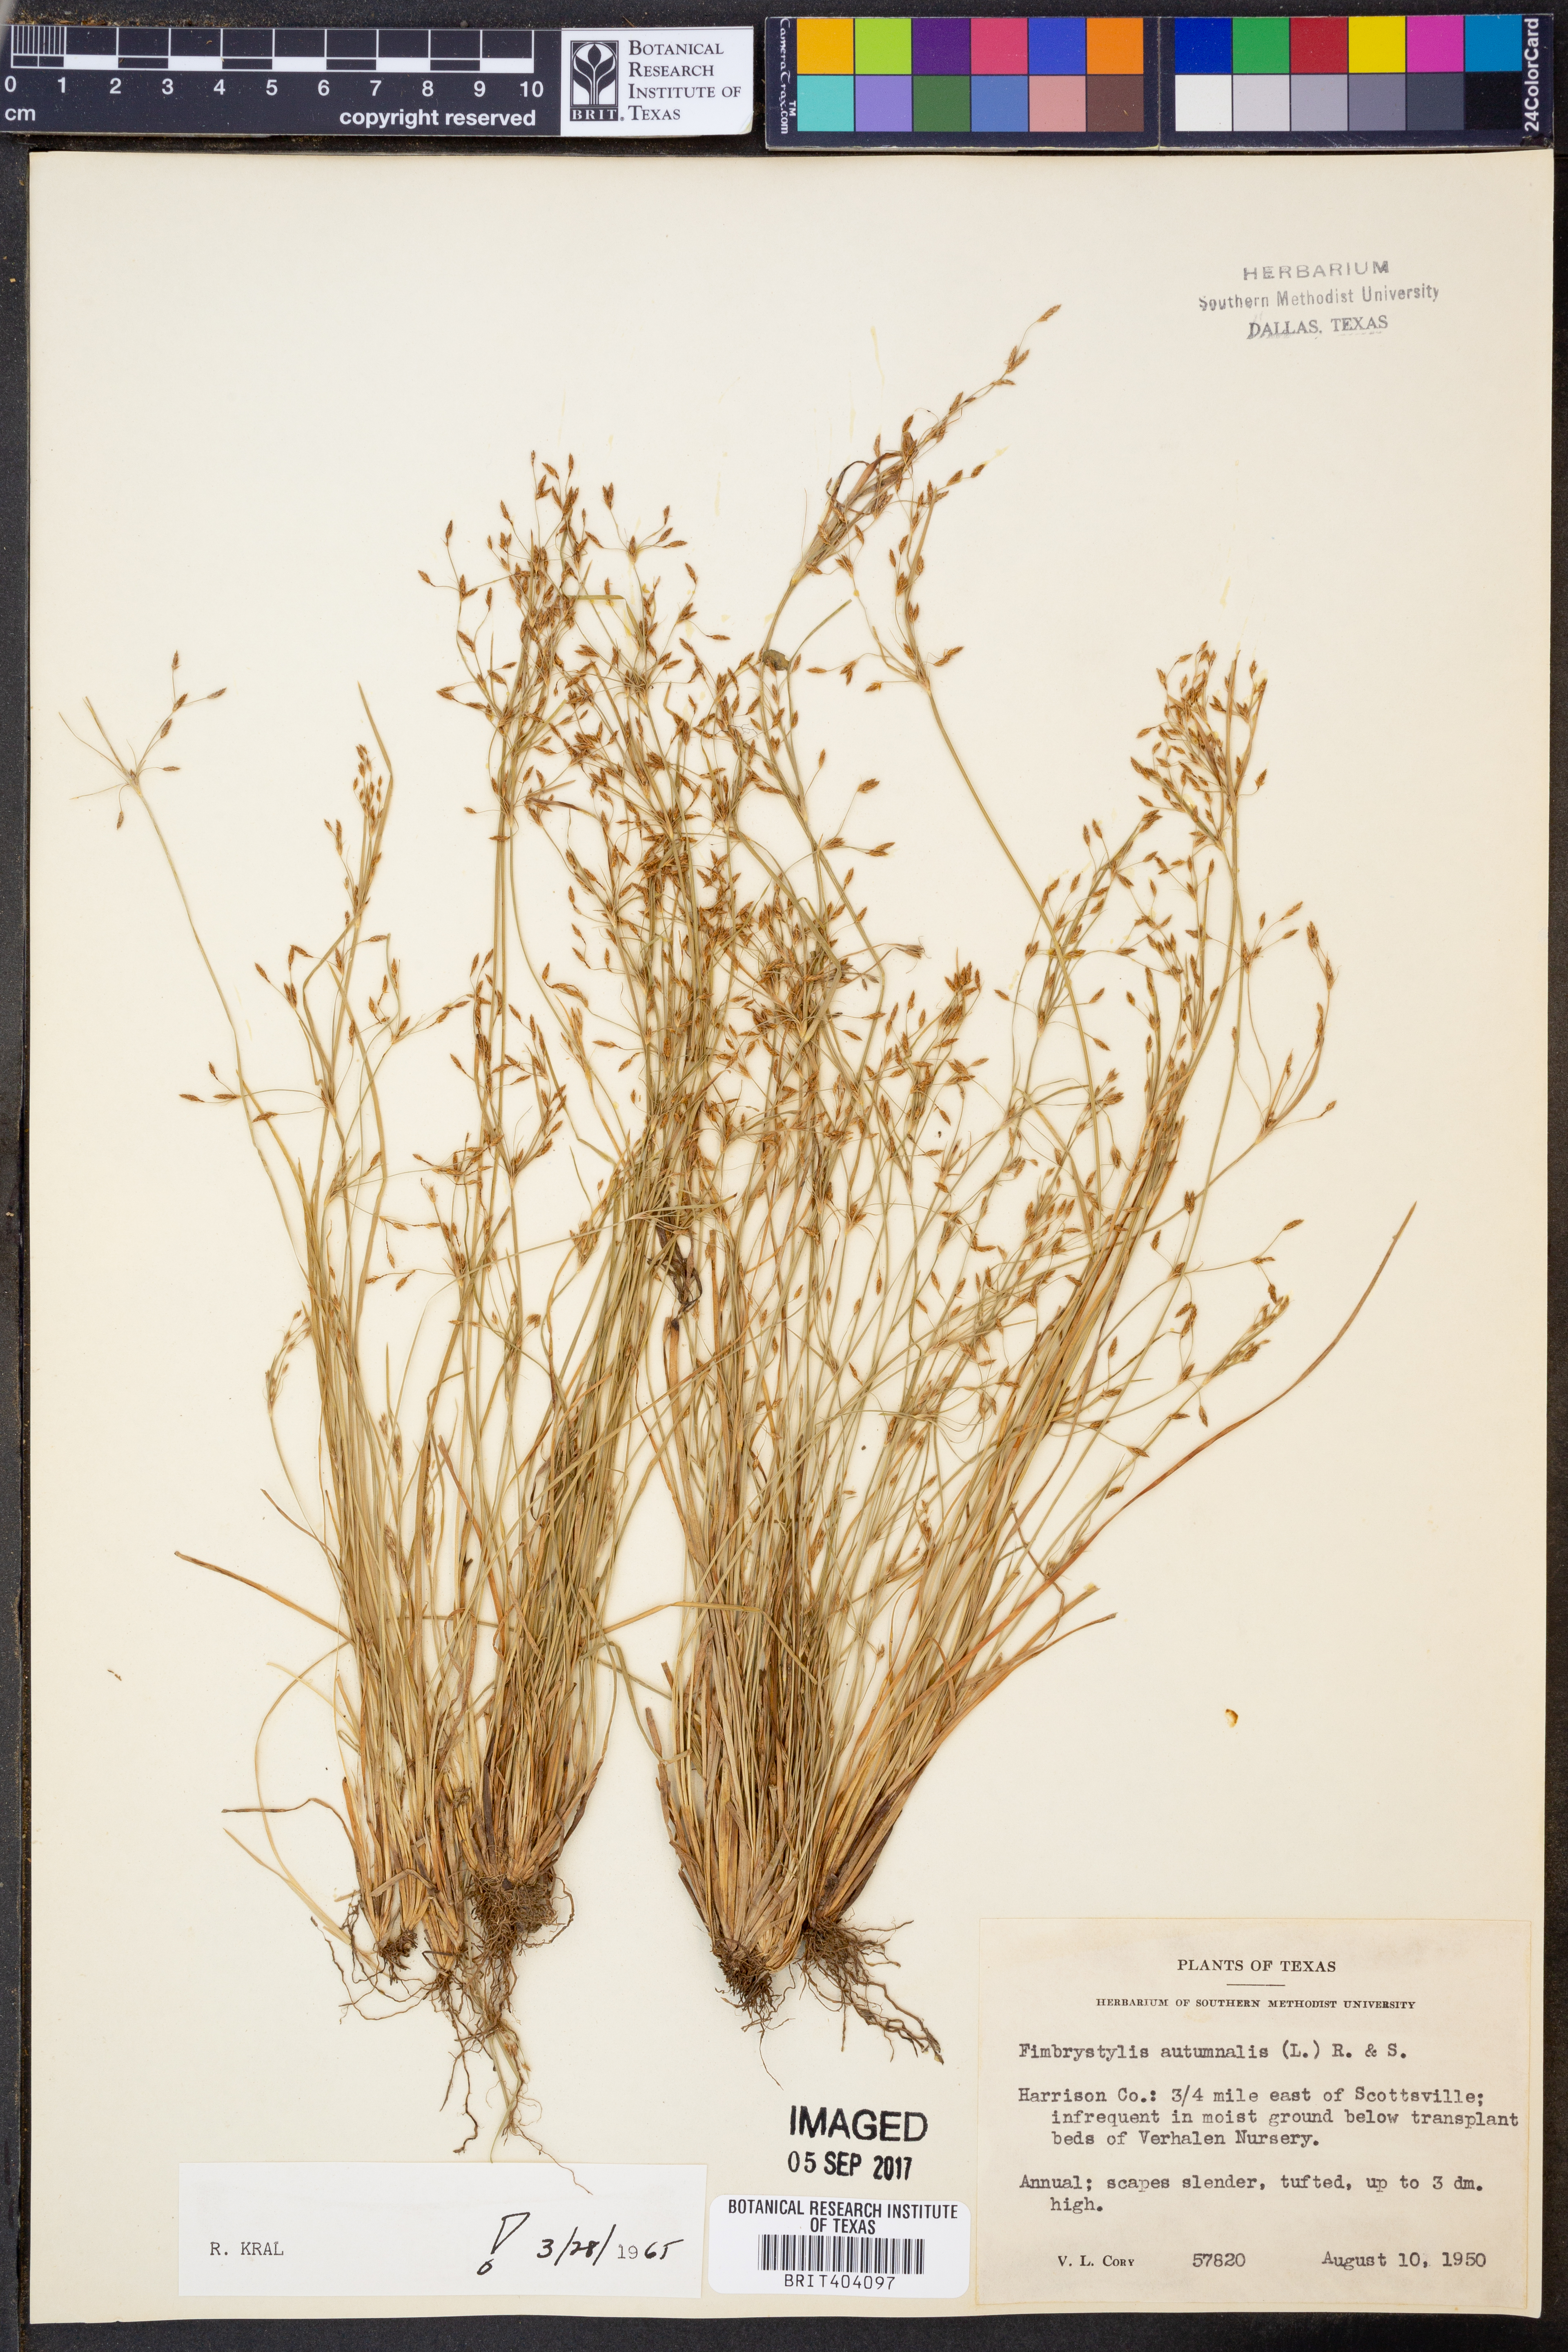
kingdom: Plantae
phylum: Tracheophyta
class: Liliopsida
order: Poales
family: Cyperaceae
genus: Fimbristylis
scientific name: Fimbristylis autumnalis
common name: Slender fimbristylis
